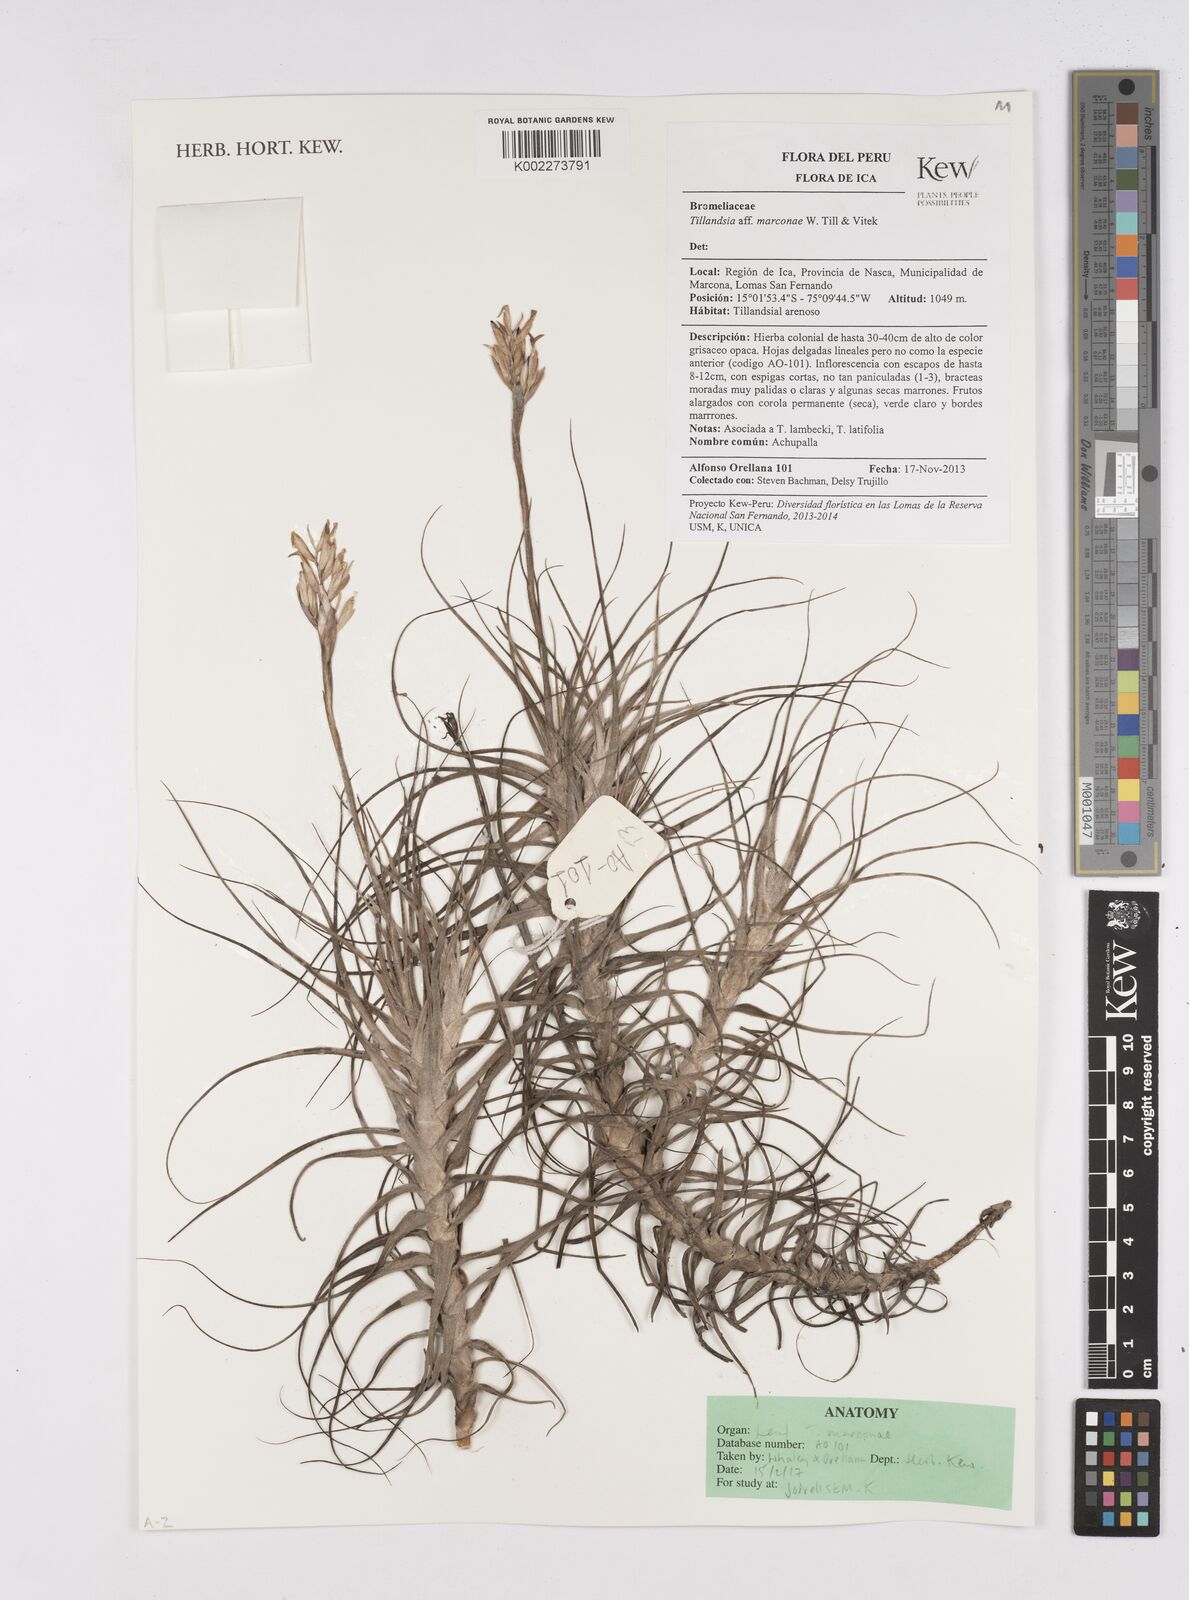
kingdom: Plantae
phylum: Tracheophyta
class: Liliopsida
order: Poales
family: Bromeliaceae
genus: Tillandsia
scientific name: Tillandsia marconae
